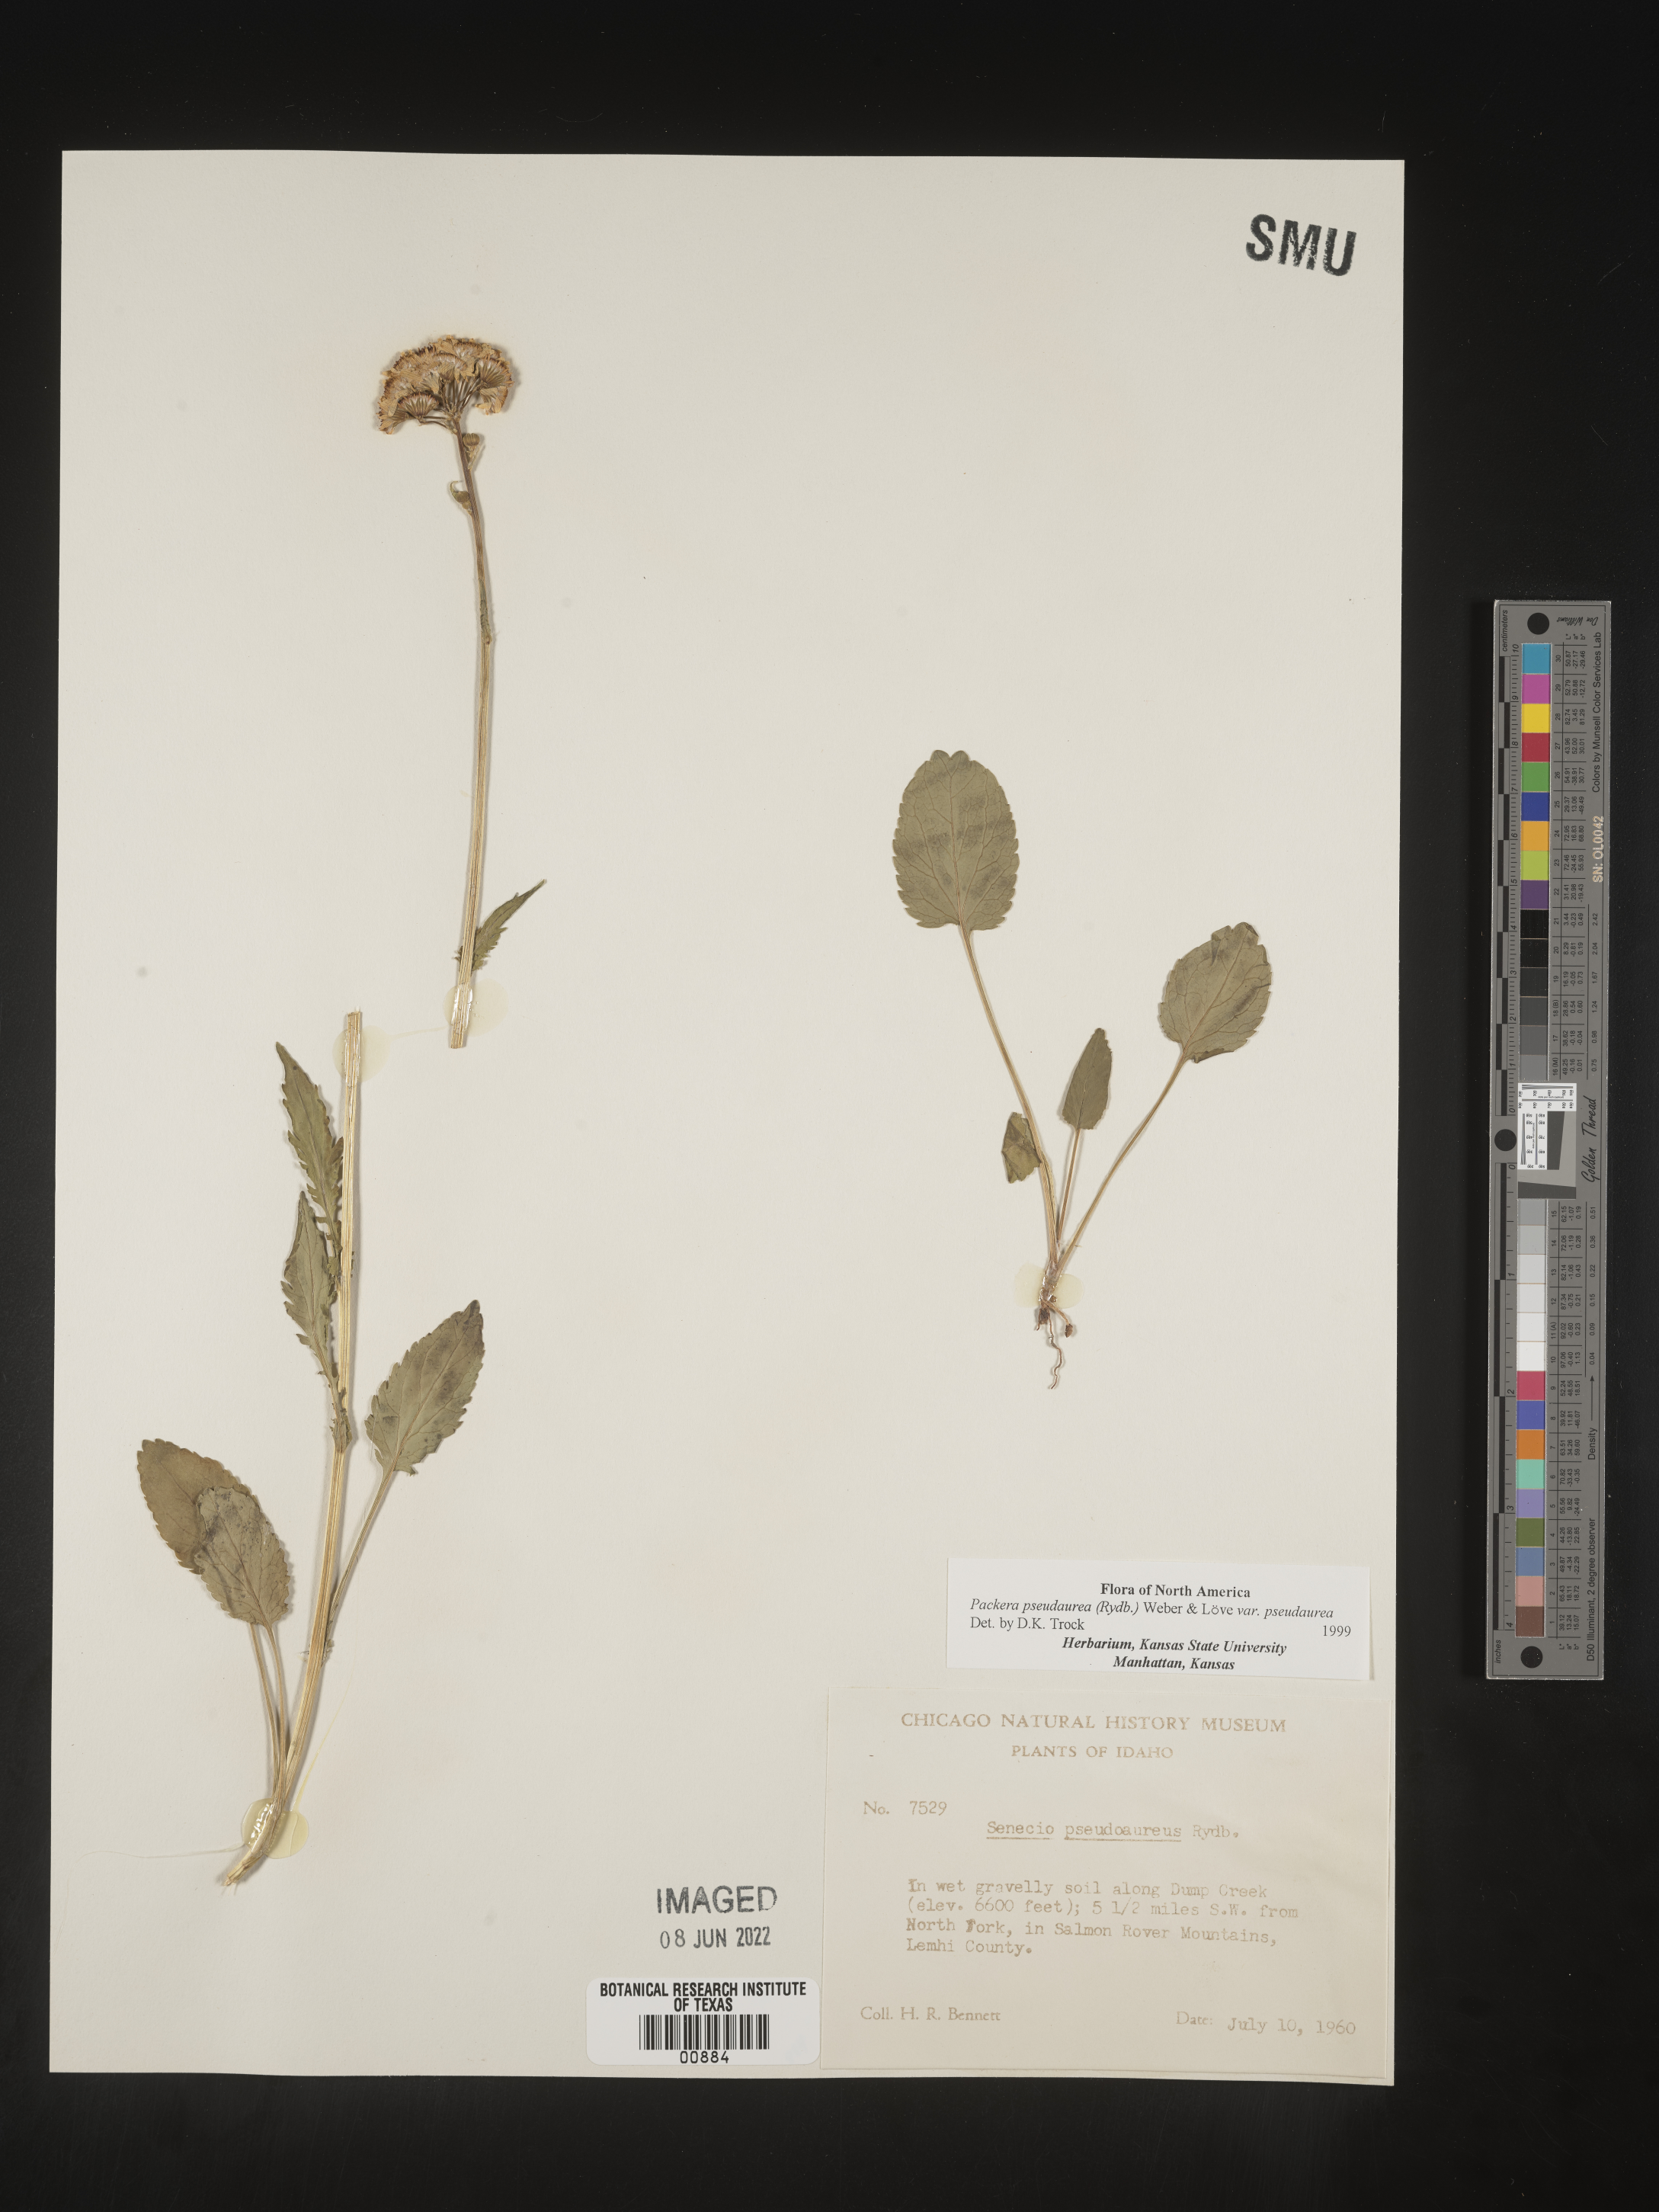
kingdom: Plantae
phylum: Tracheophyta
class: Magnoliopsida
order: Asterales
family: Asteraceae
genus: Packera
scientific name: Packera pseudaurea
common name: False-gold groundsel
